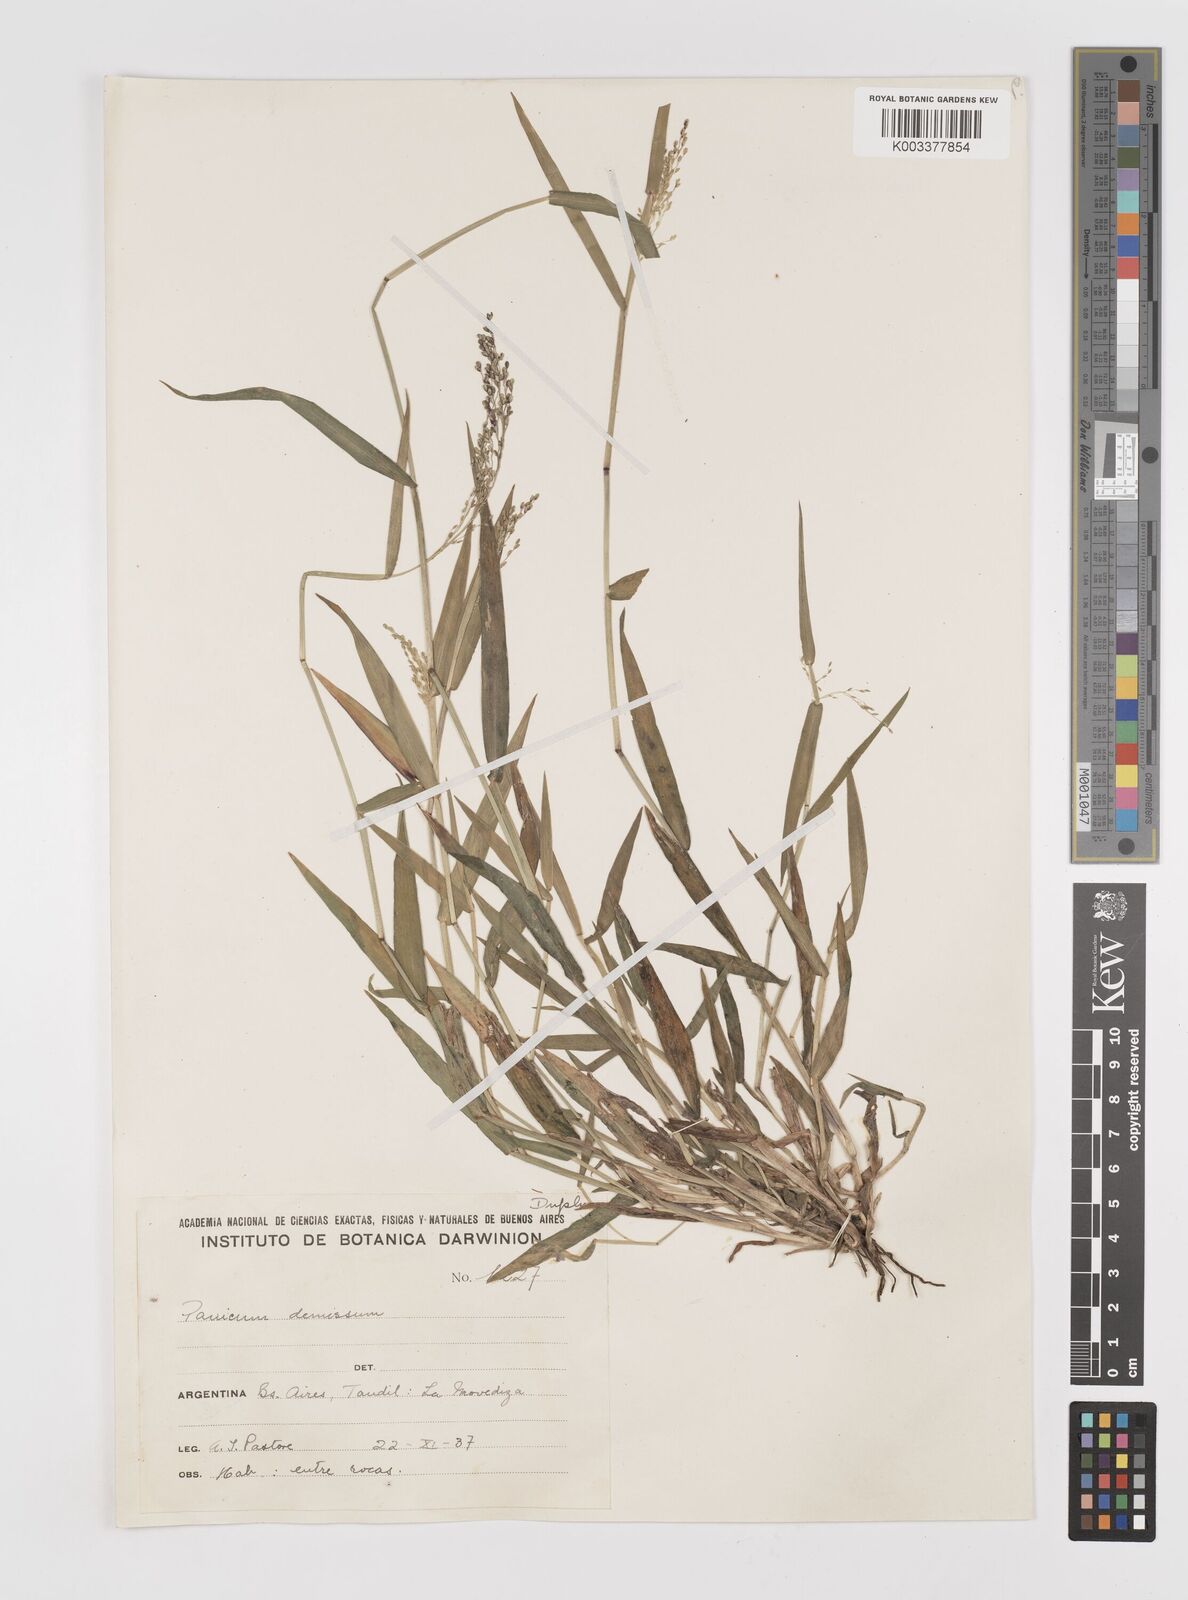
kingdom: Plantae
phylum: Tracheophyta
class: Liliopsida
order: Poales
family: Poaceae
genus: Dichanthelium
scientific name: Dichanthelium stigmosum
